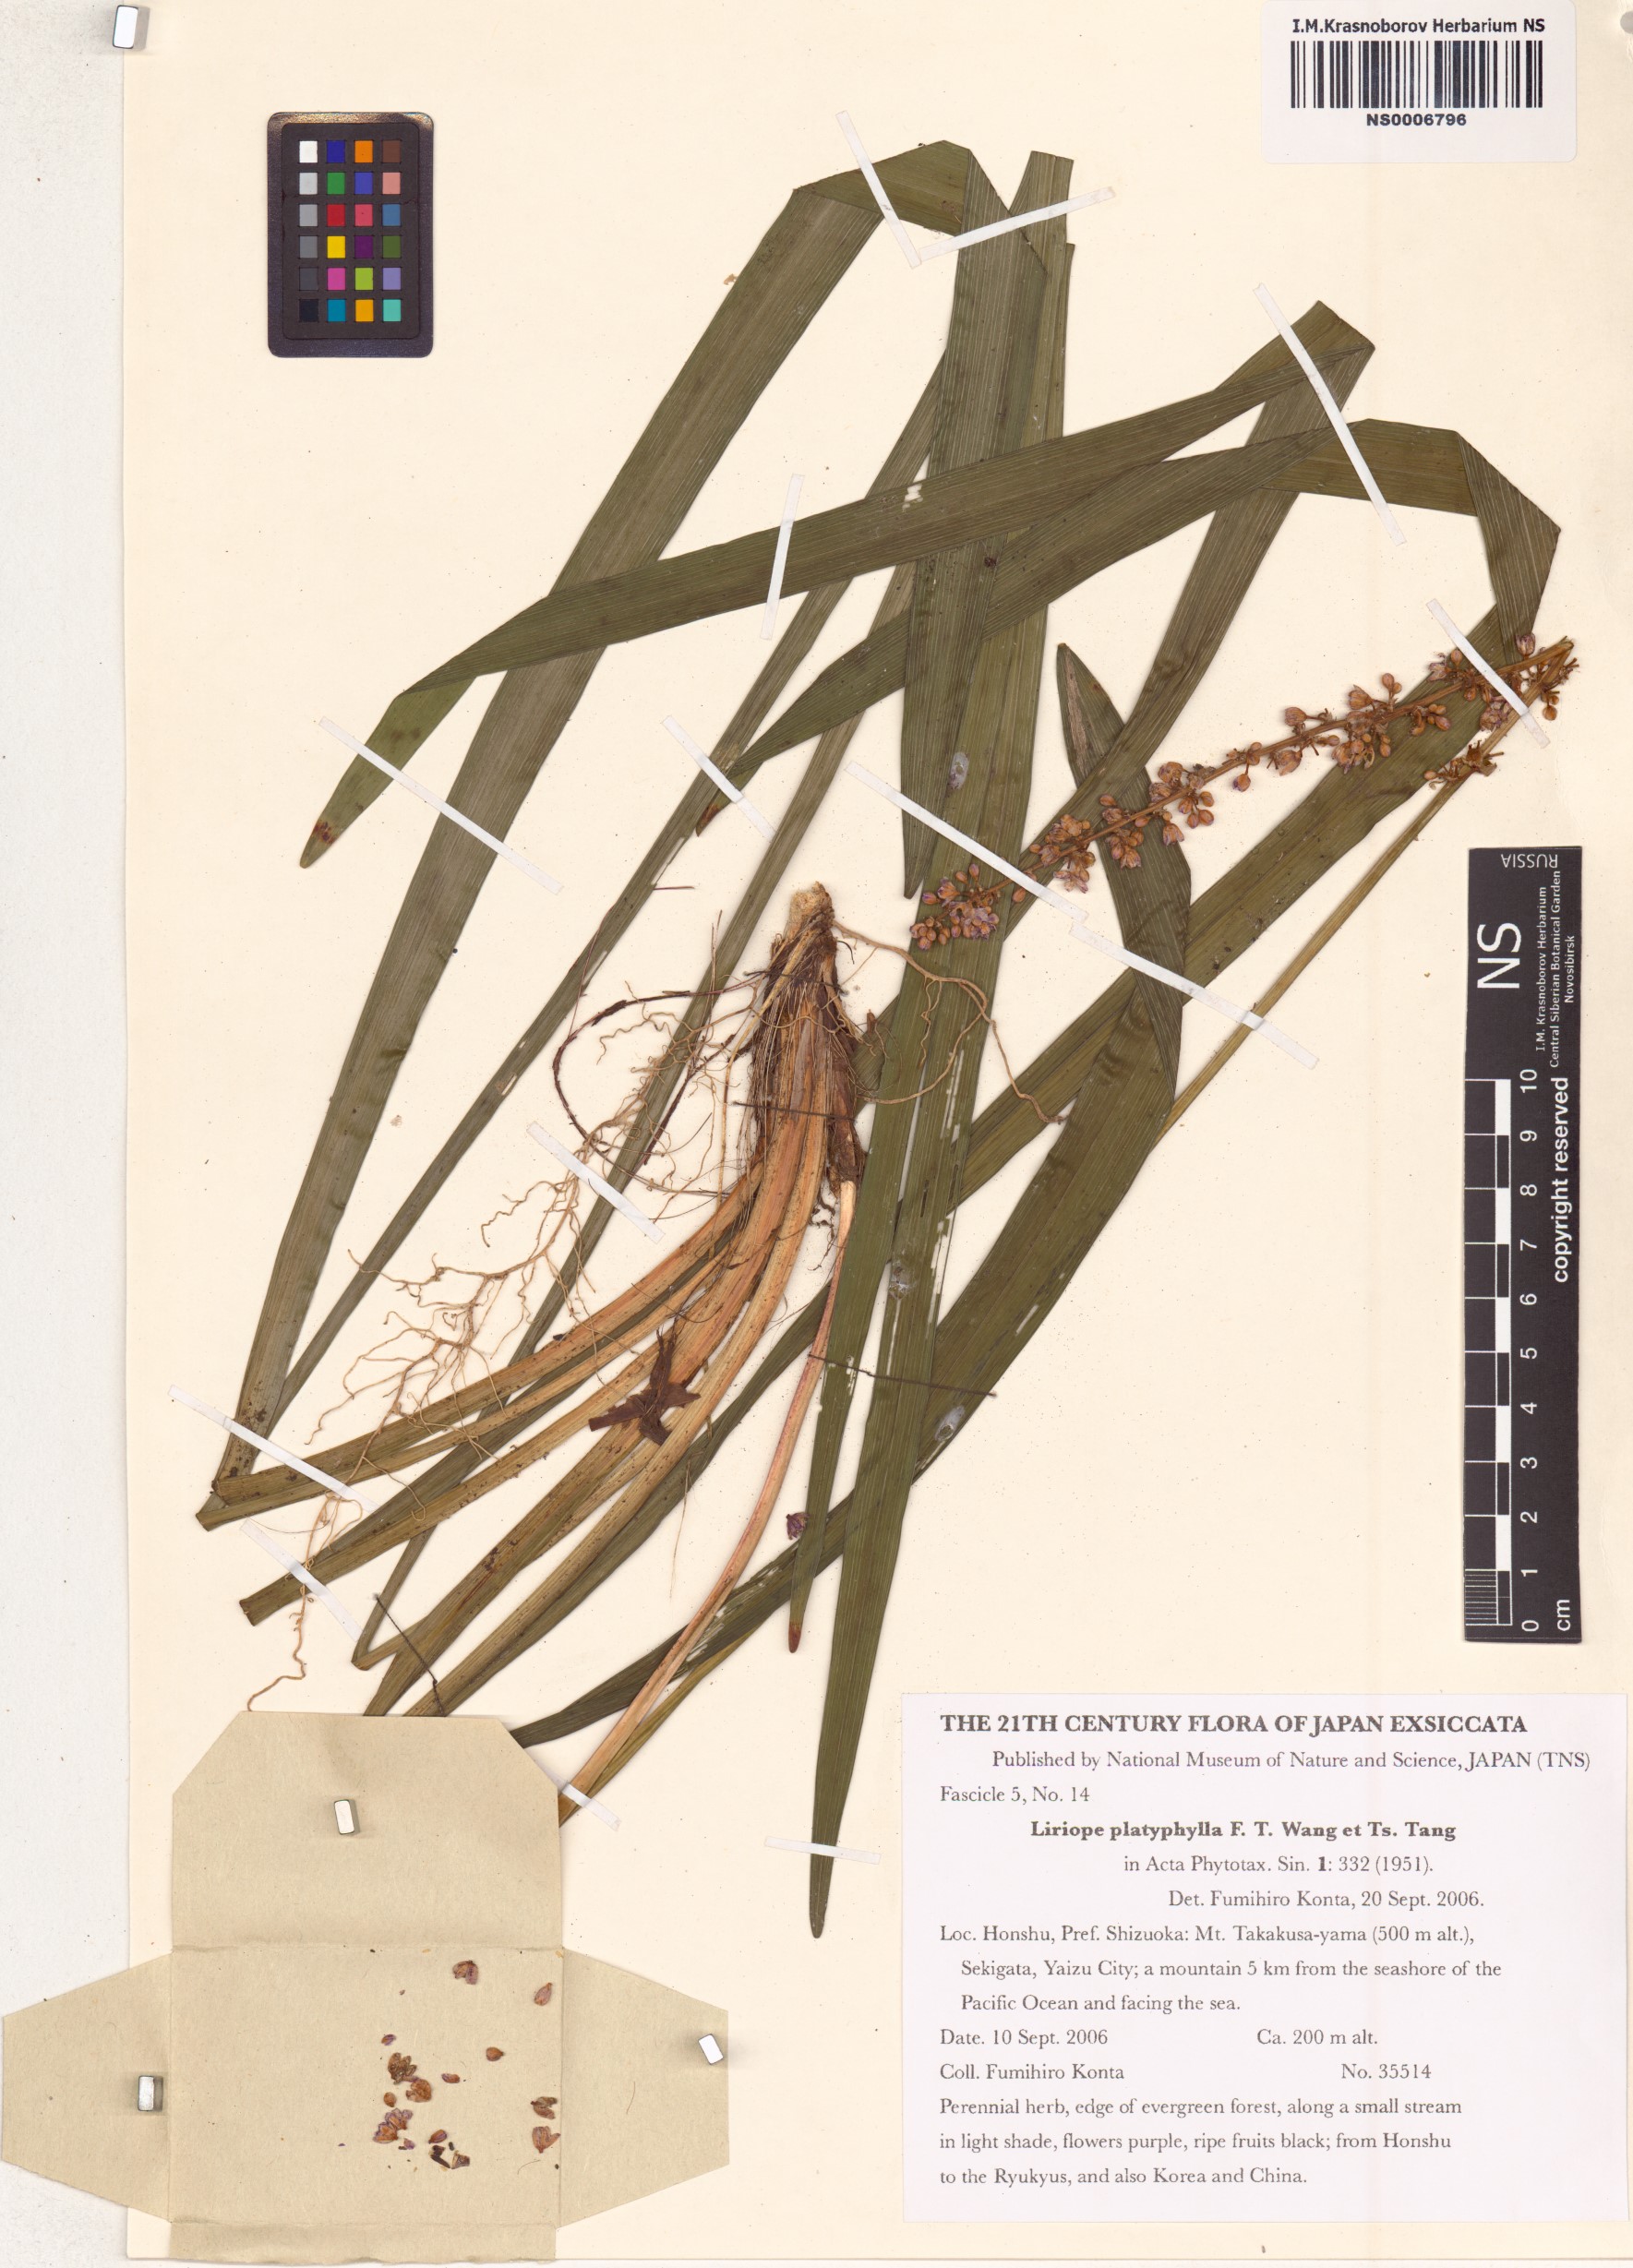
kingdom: Plantae
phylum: Tracheophyta
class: Liliopsida
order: Asparagales
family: Asparagaceae
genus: Liriope
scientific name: Liriope muscari
